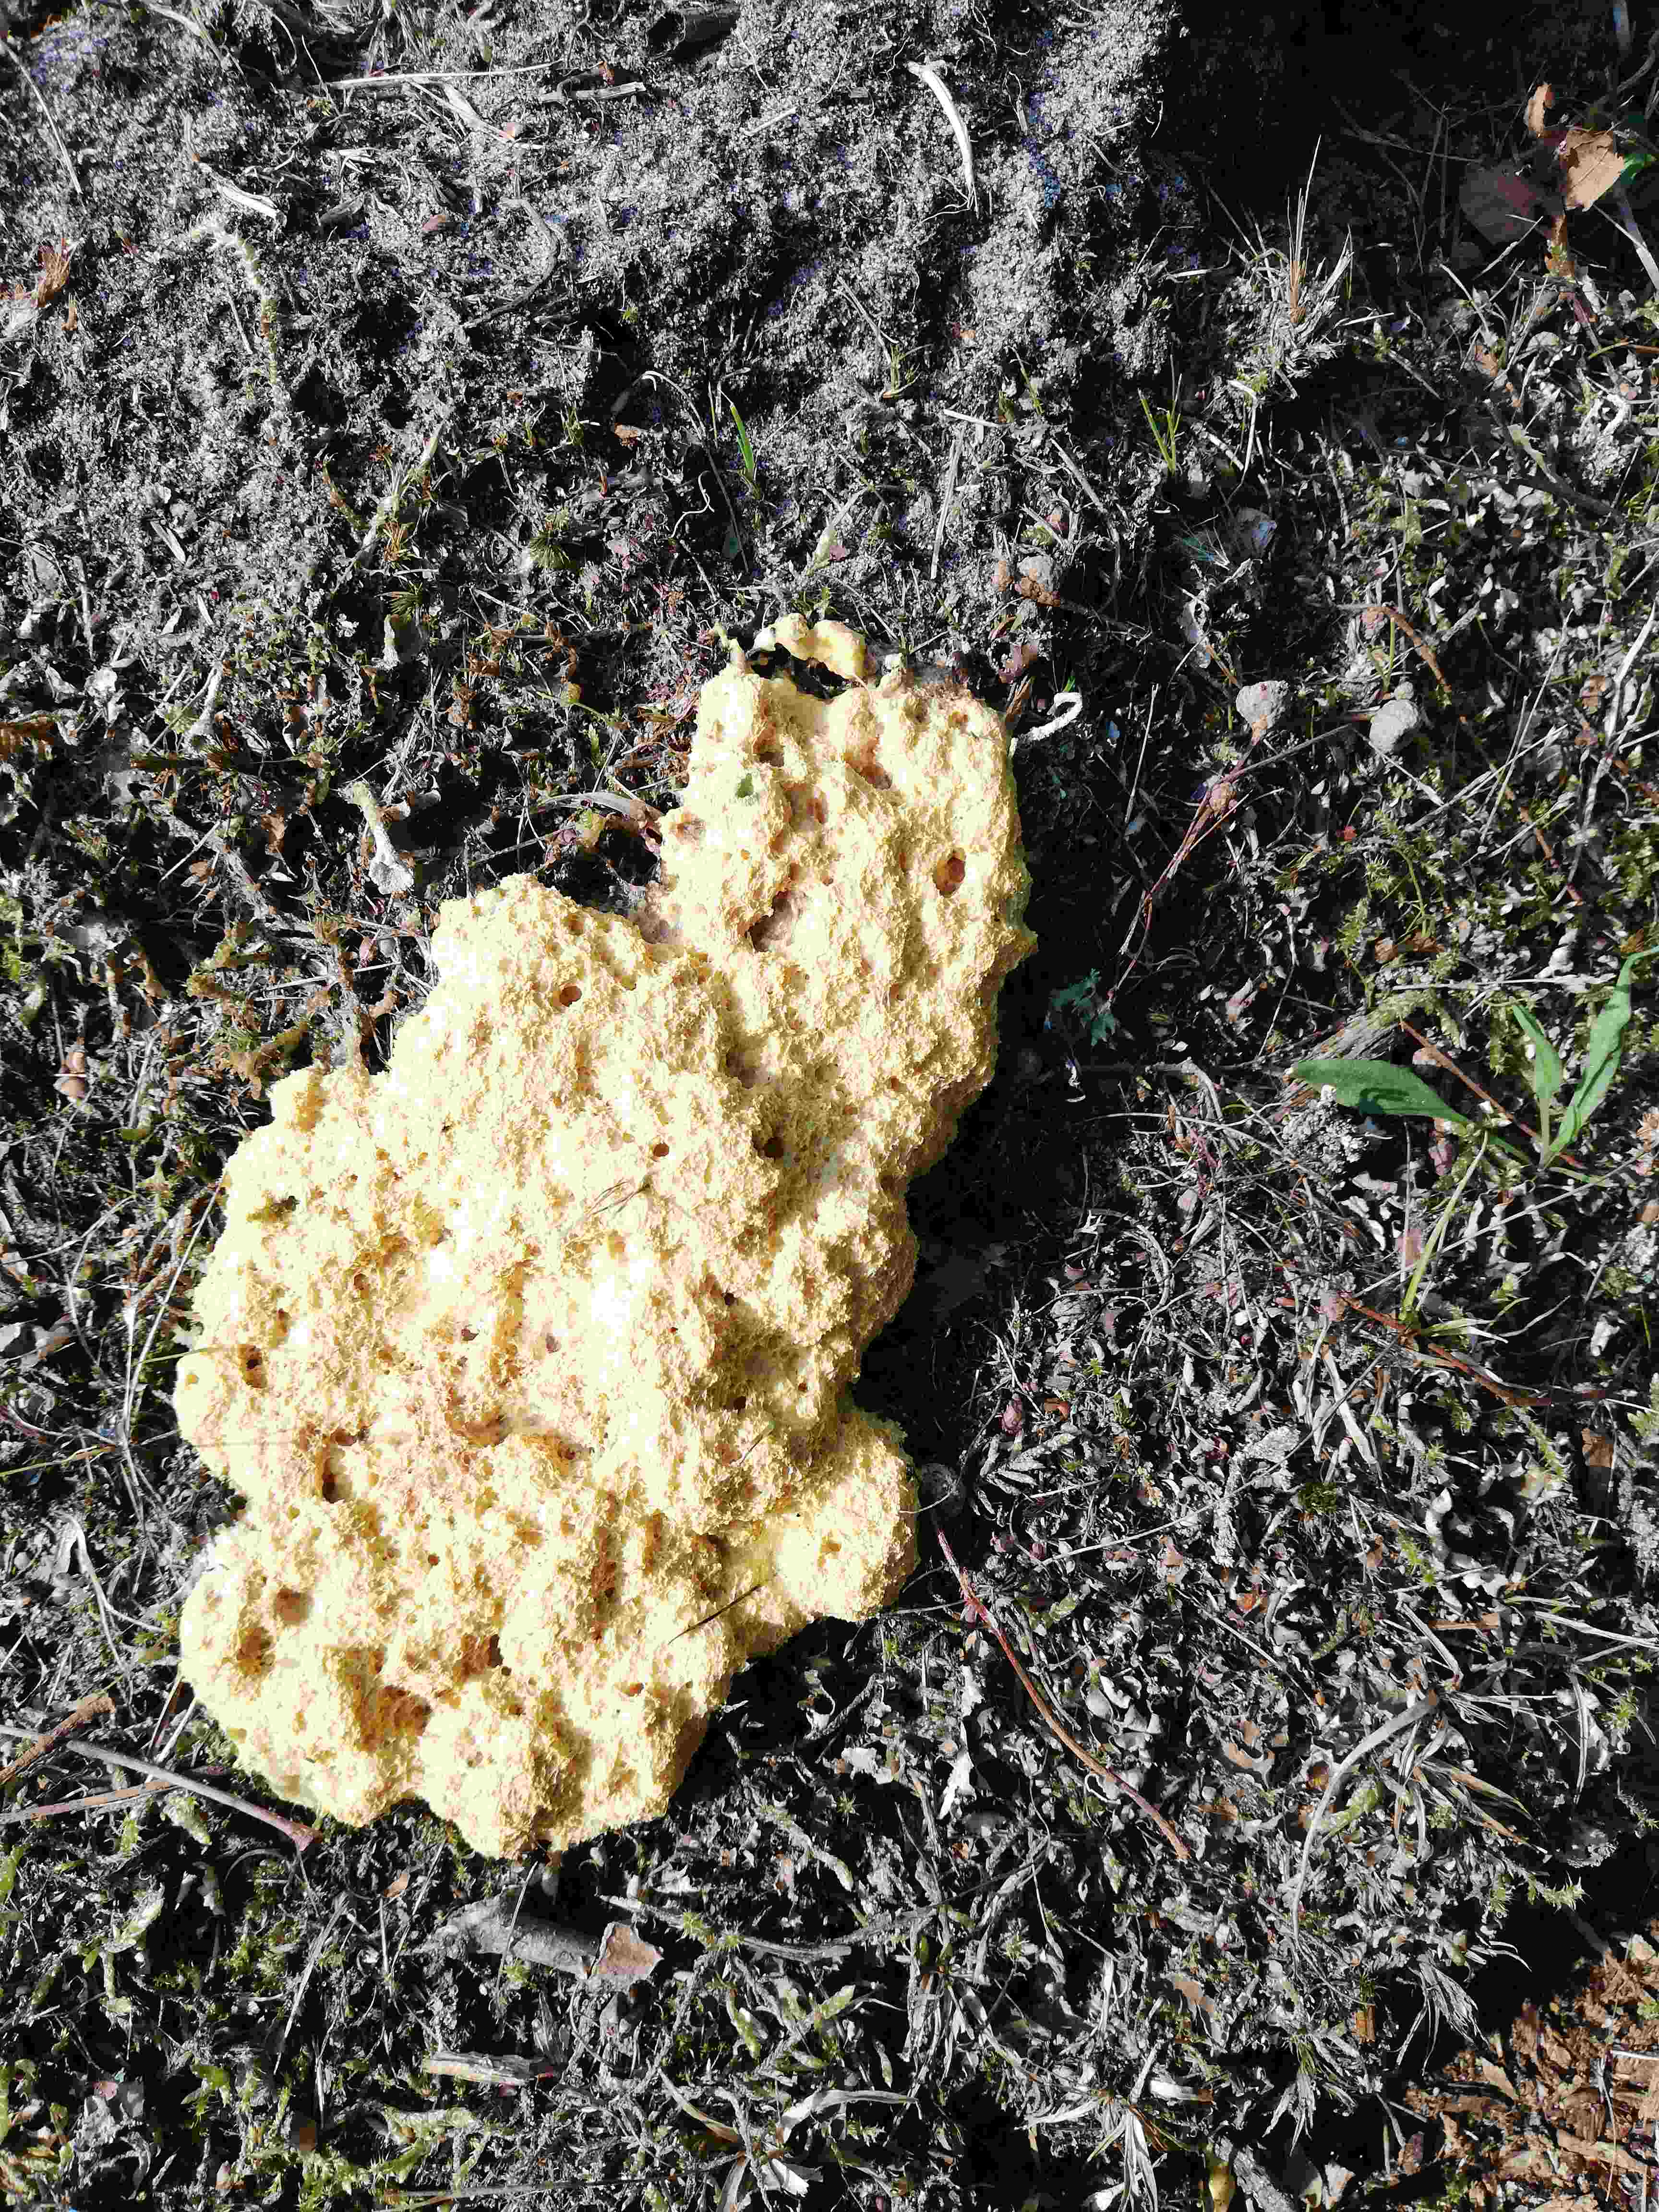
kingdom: Protozoa
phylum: Mycetozoa
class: Myxomycetes
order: Physarales
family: Physaraceae
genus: Fuligo
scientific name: Fuligo septica
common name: gul troldsmør
